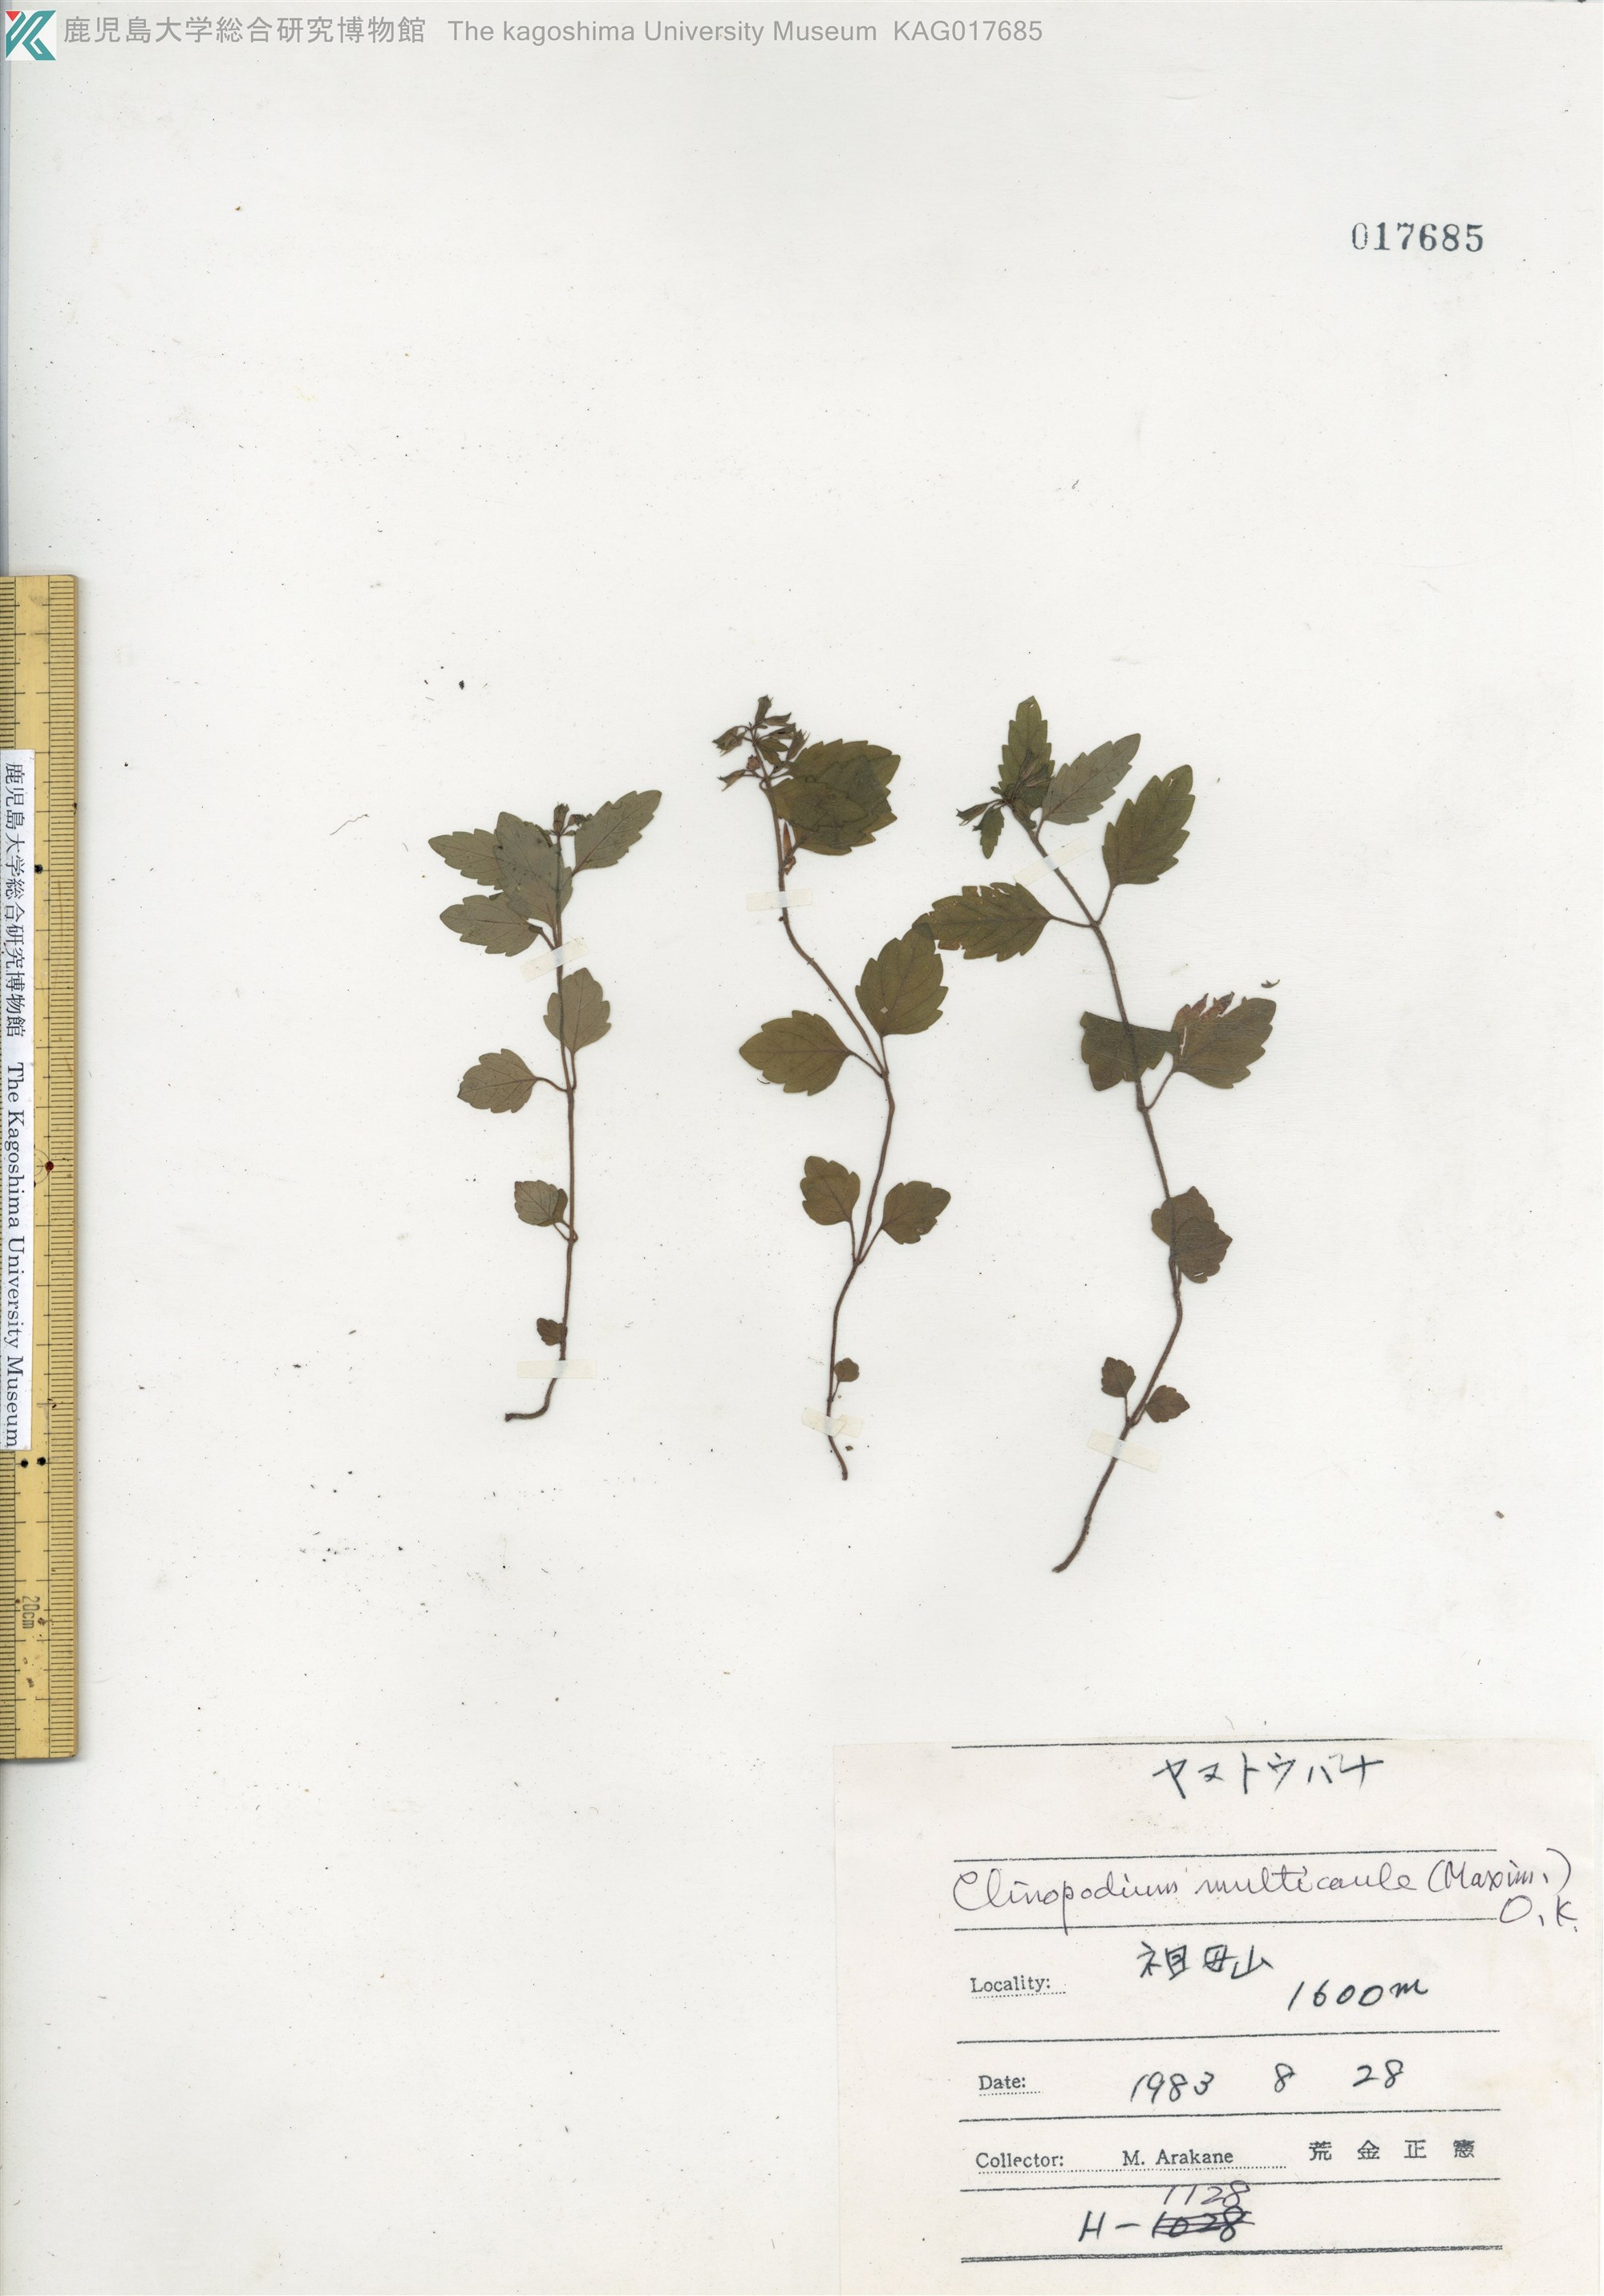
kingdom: Plantae
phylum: Tracheophyta
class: Magnoliopsida
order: Lamiales
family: Lamiaceae
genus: Clinopodium
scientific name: Clinopodium multicaule
